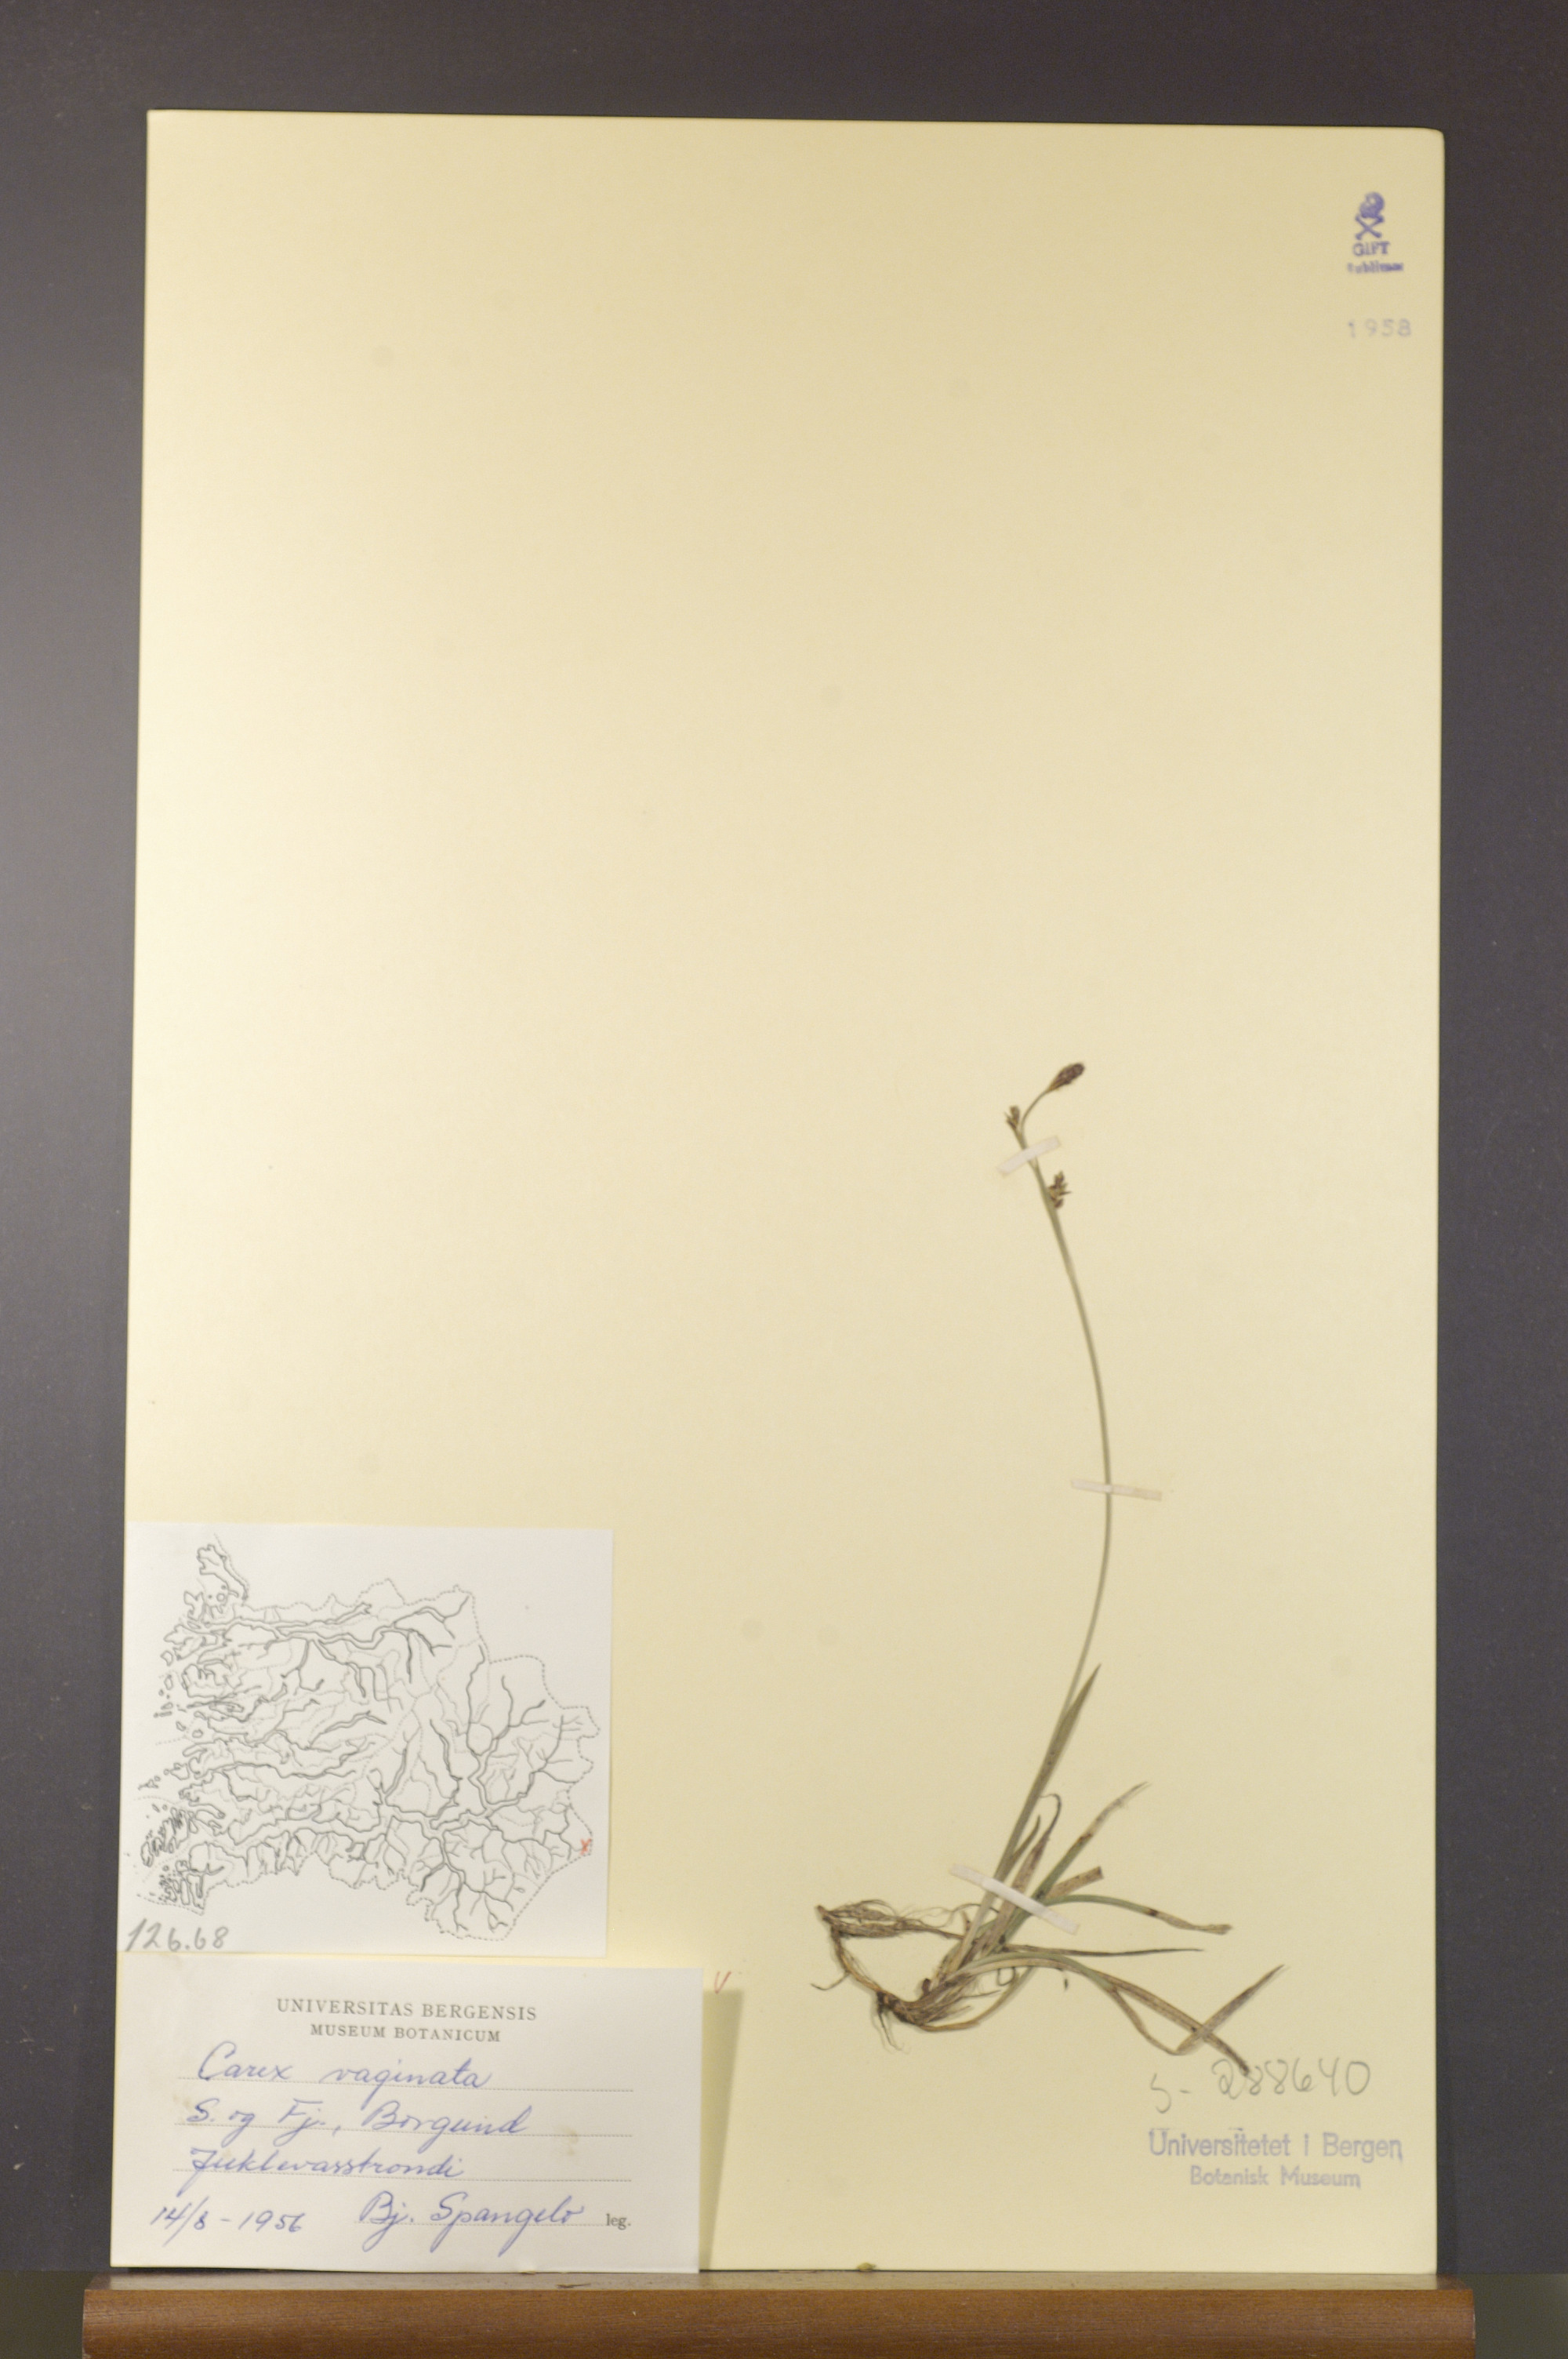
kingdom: Plantae
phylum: Tracheophyta
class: Liliopsida
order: Poales
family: Cyperaceae
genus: Carex
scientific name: Carex vaginata
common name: Sheathed sedge
